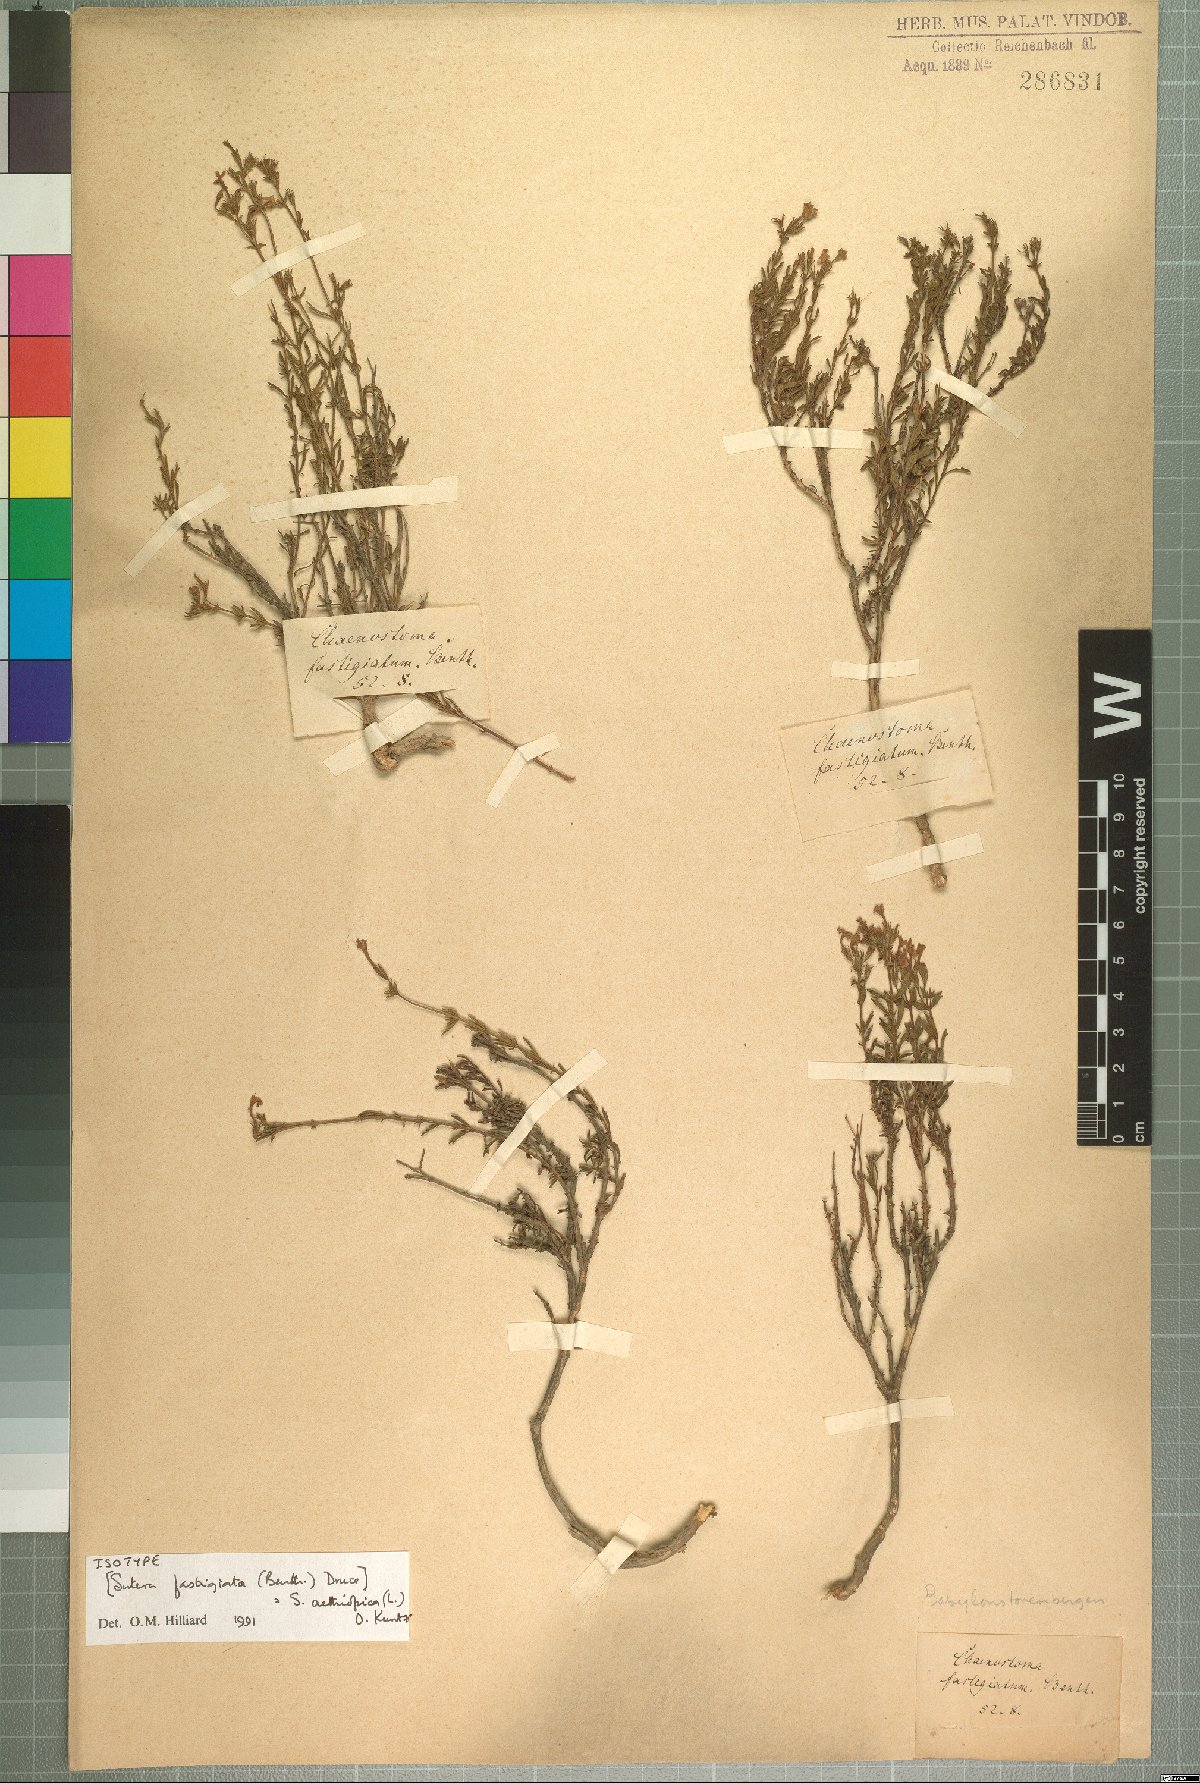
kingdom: Plantae
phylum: Tracheophyta
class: Magnoliopsida
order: Lamiales
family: Scrophulariaceae
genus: Chaenostoma
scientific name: Chaenostoma aethiopicum
